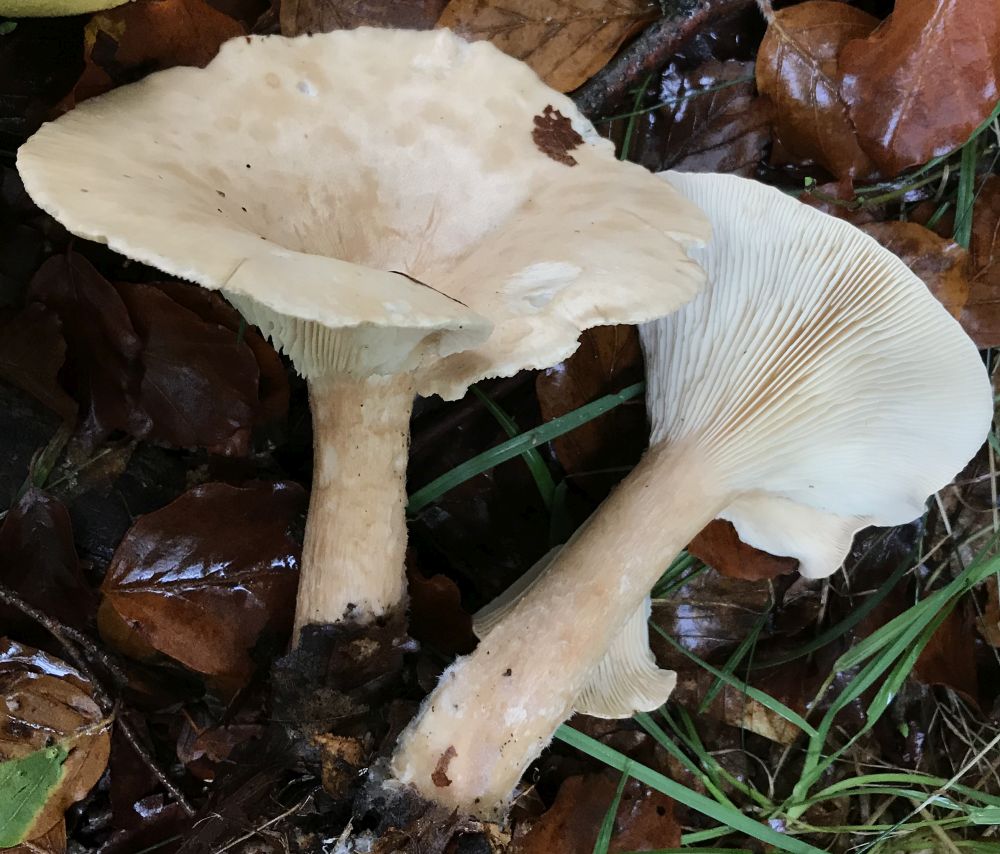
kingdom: Fungi
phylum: Basidiomycota
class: Agaricomycetes
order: Agaricales
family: Tricholomataceae
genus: Infundibulicybe
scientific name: Infundibulicybe geotropa
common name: stor tragthat
